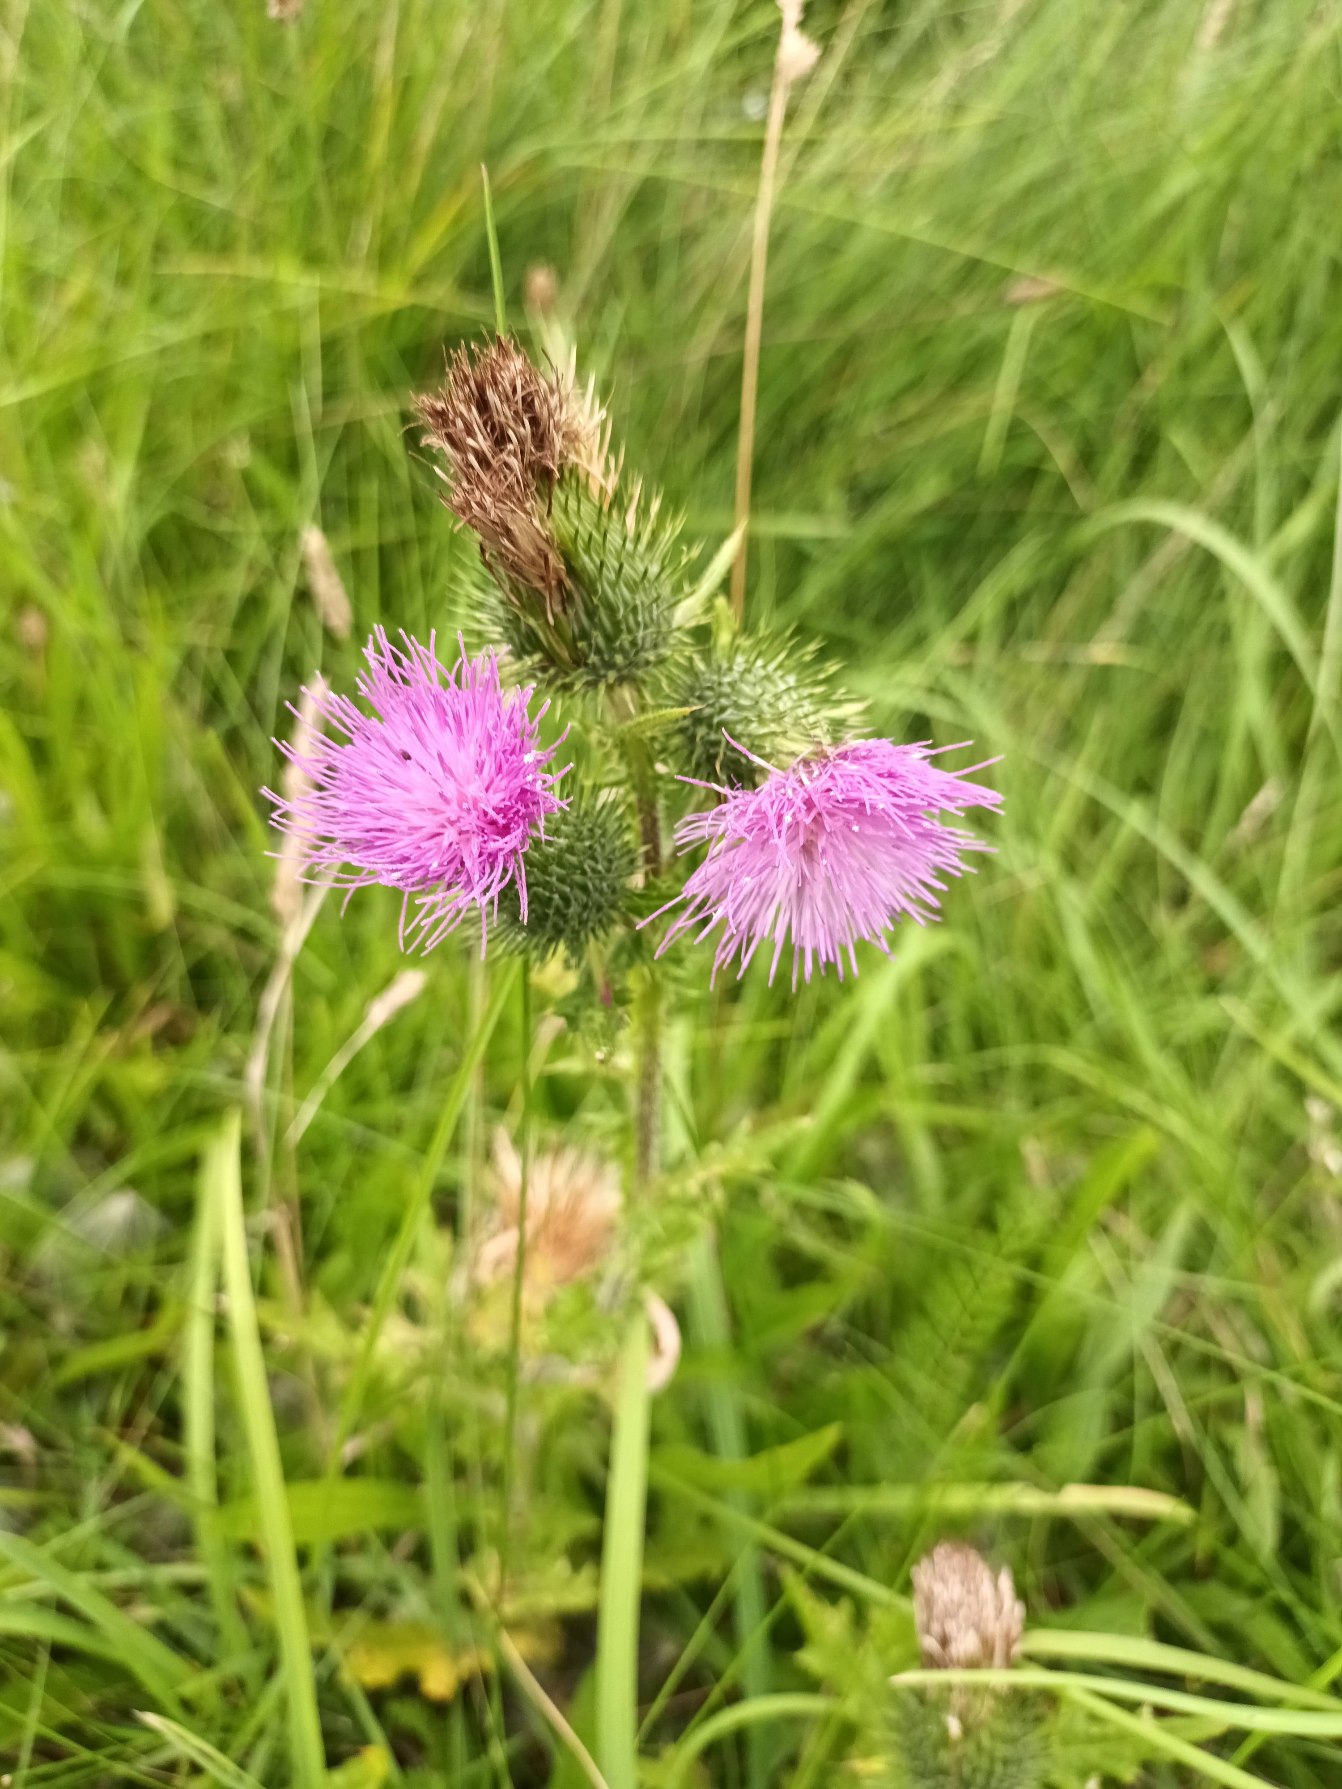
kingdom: Plantae
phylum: Tracheophyta
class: Magnoliopsida
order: Asterales
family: Asteraceae
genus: Cirsium
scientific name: Cirsium vulgare
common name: Horse-tidsel
